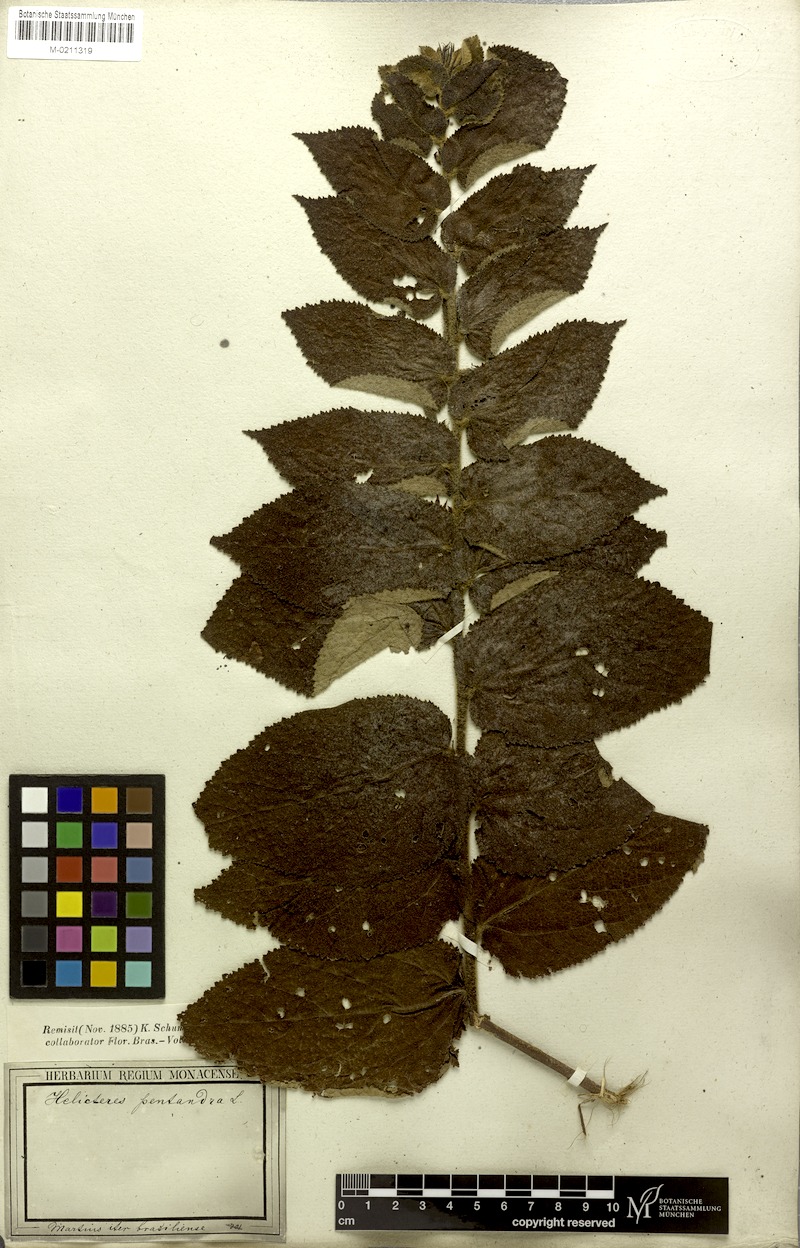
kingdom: Plantae
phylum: Tracheophyta
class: Magnoliopsida
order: Malvales
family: Malvaceae
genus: Helicteres
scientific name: Helicteres pentandra
